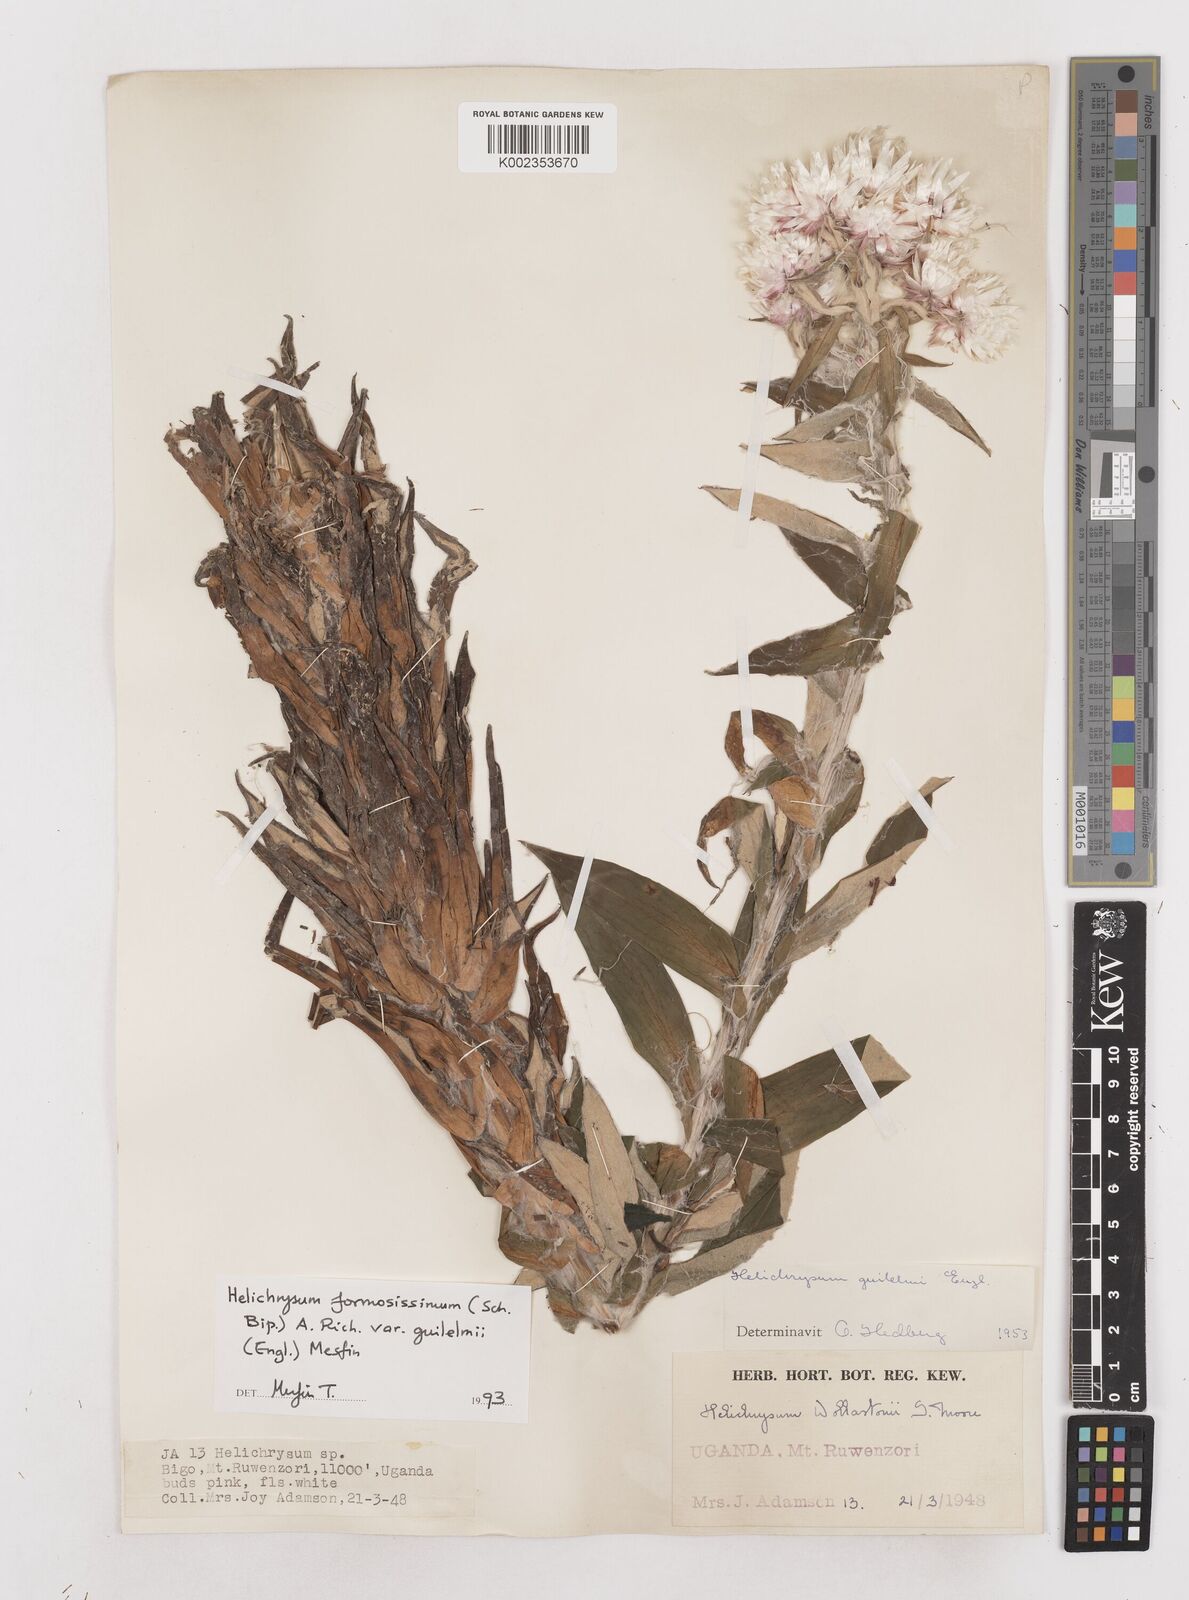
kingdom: Plantae
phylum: Tracheophyta
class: Magnoliopsida
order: Asterales
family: Asteraceae
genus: Helichrysum
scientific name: Helichrysum formosissimum
